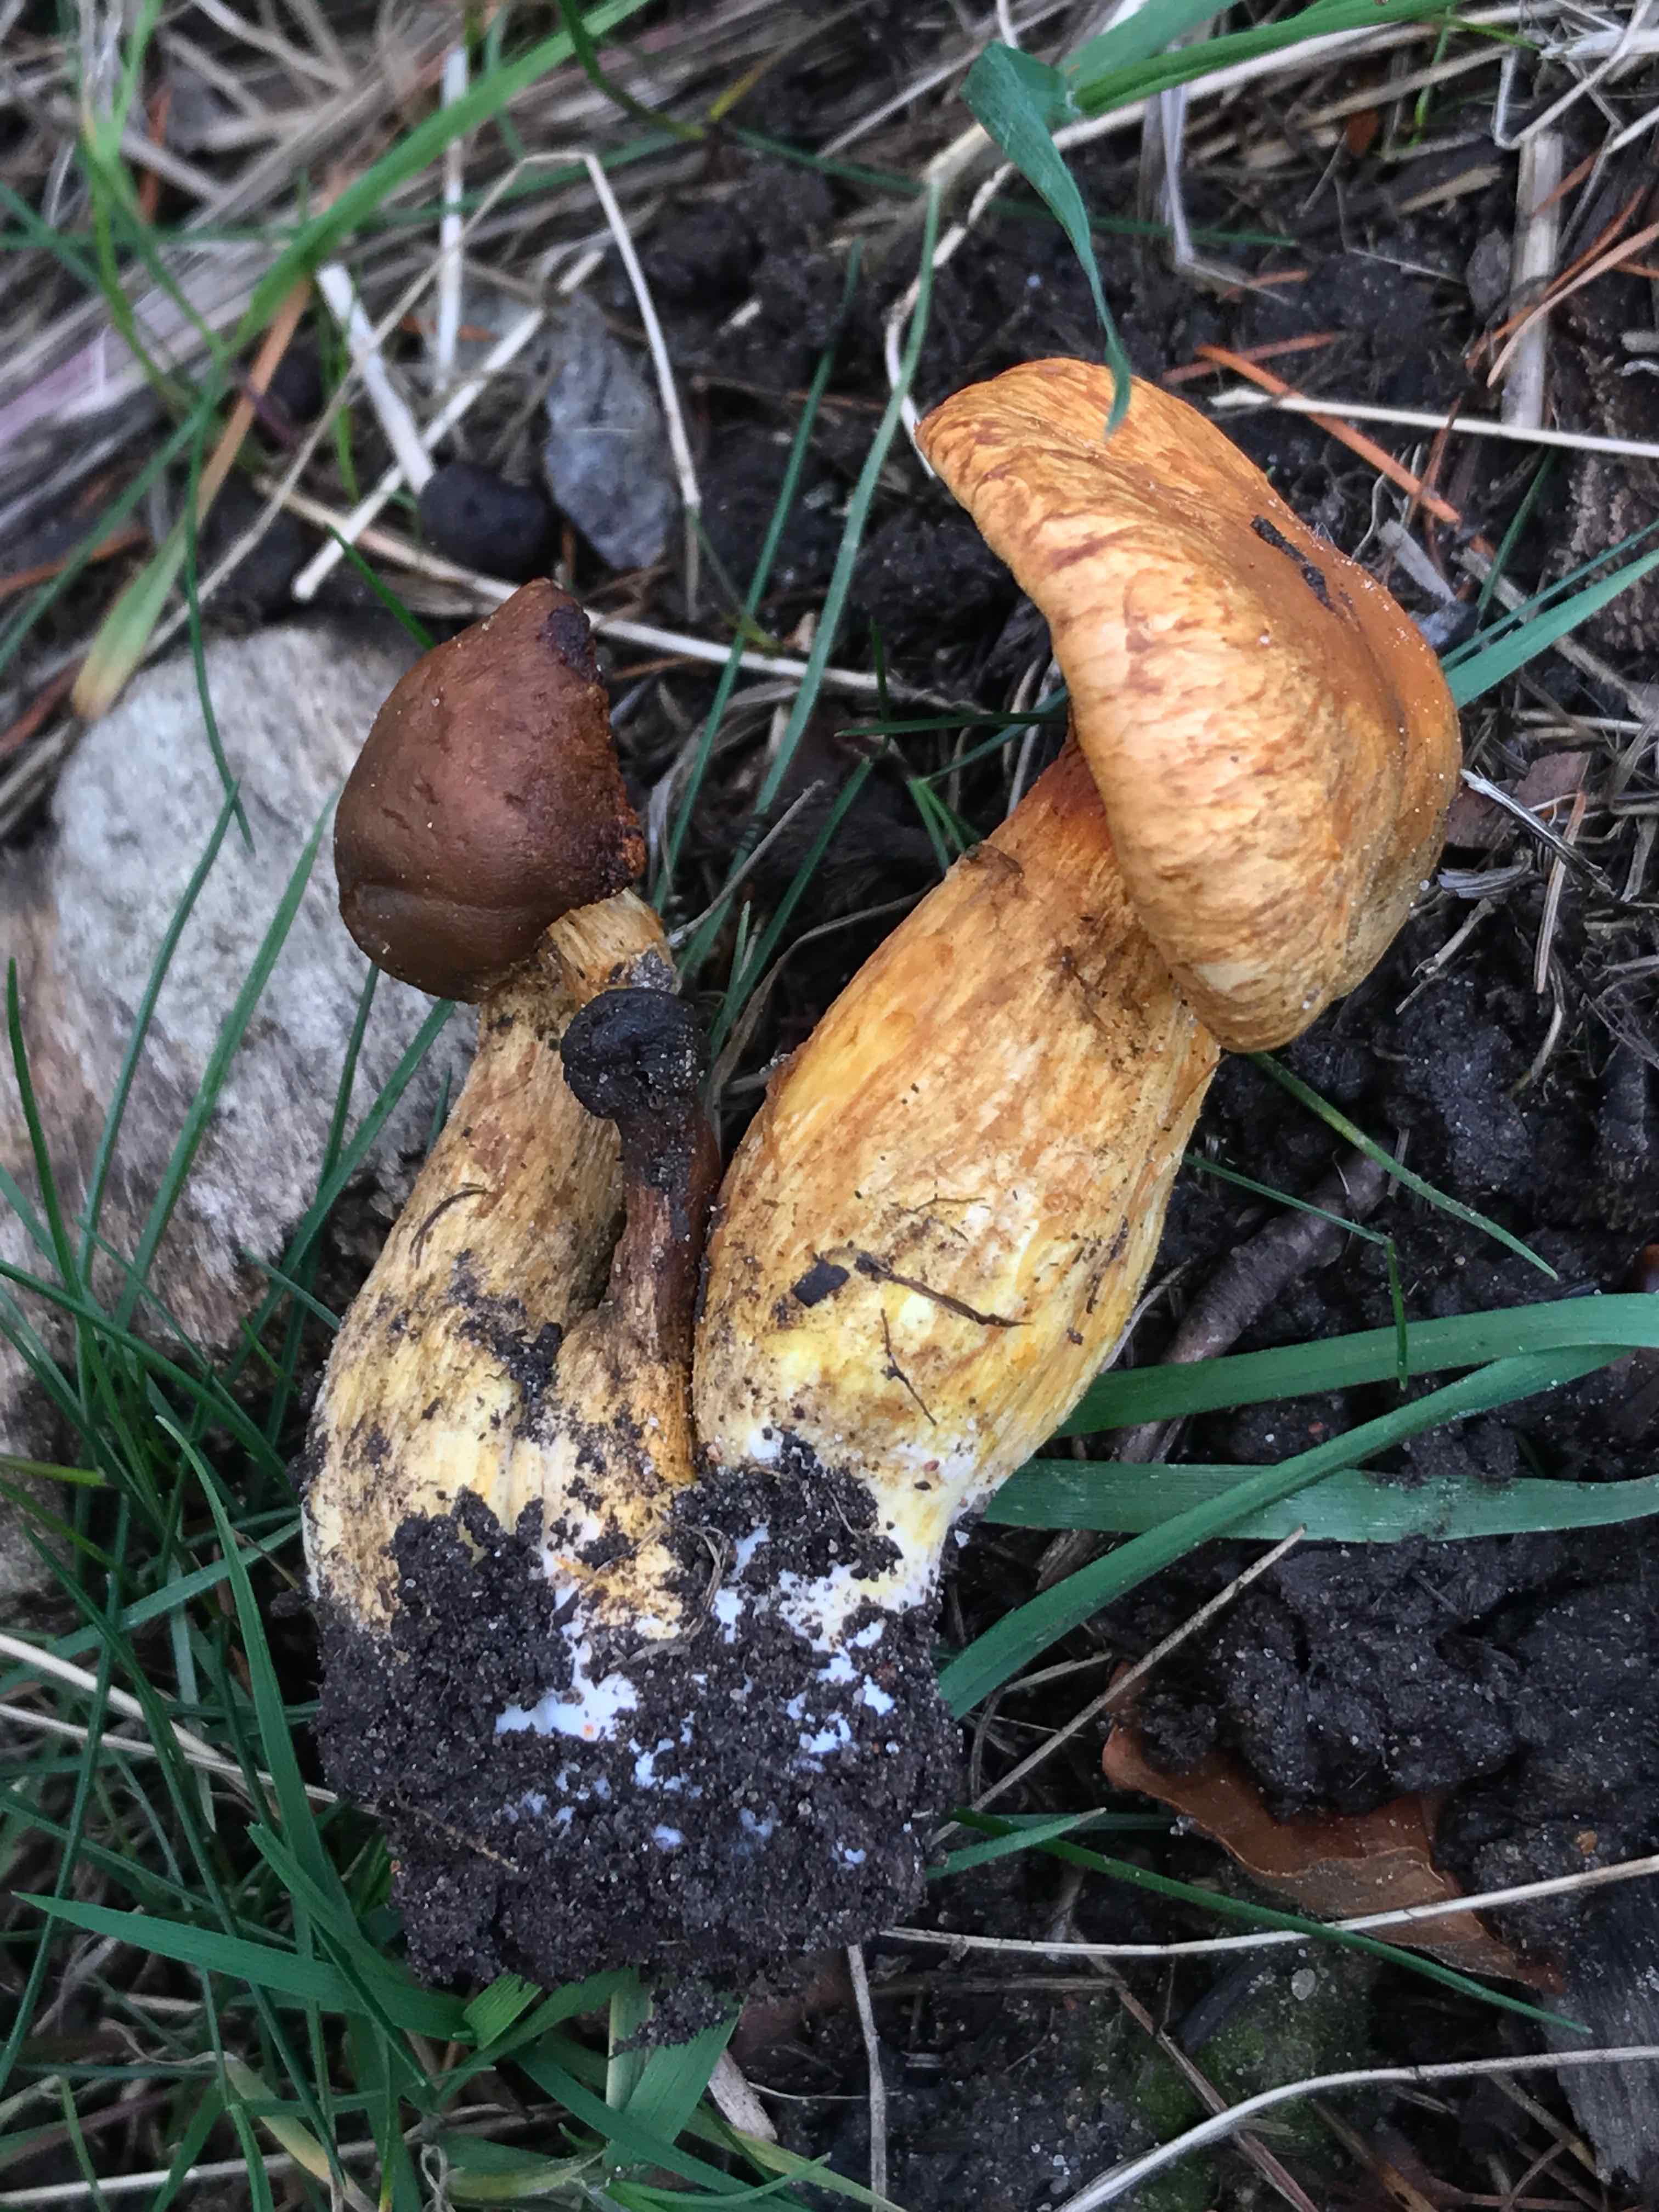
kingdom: Fungi
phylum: Basidiomycota
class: Agaricomycetes
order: Agaricales
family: Hymenogastraceae
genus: Gymnopilus
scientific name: Gymnopilus spectabilis
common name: fibret flammehat
